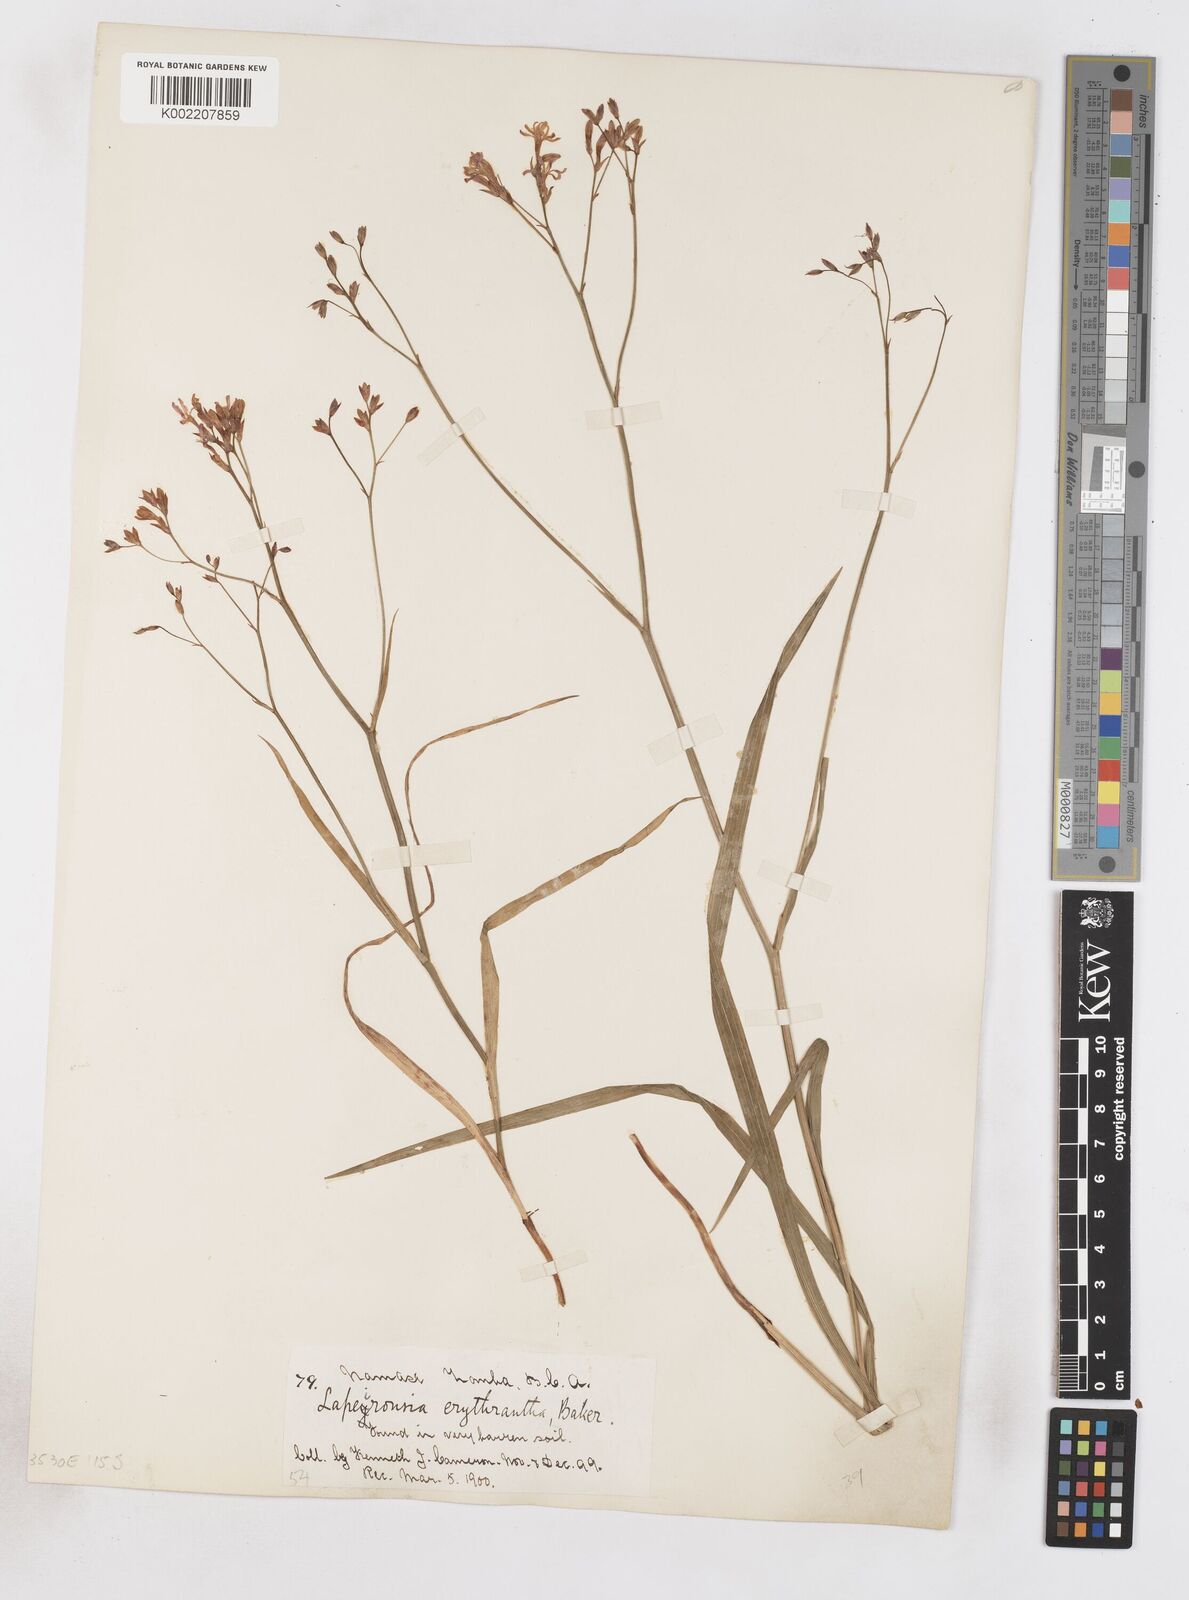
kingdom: Plantae
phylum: Tracheophyta
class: Liliopsida
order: Asparagales
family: Iridaceae
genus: Afrosolen
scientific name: Afrosolen erythranthus
